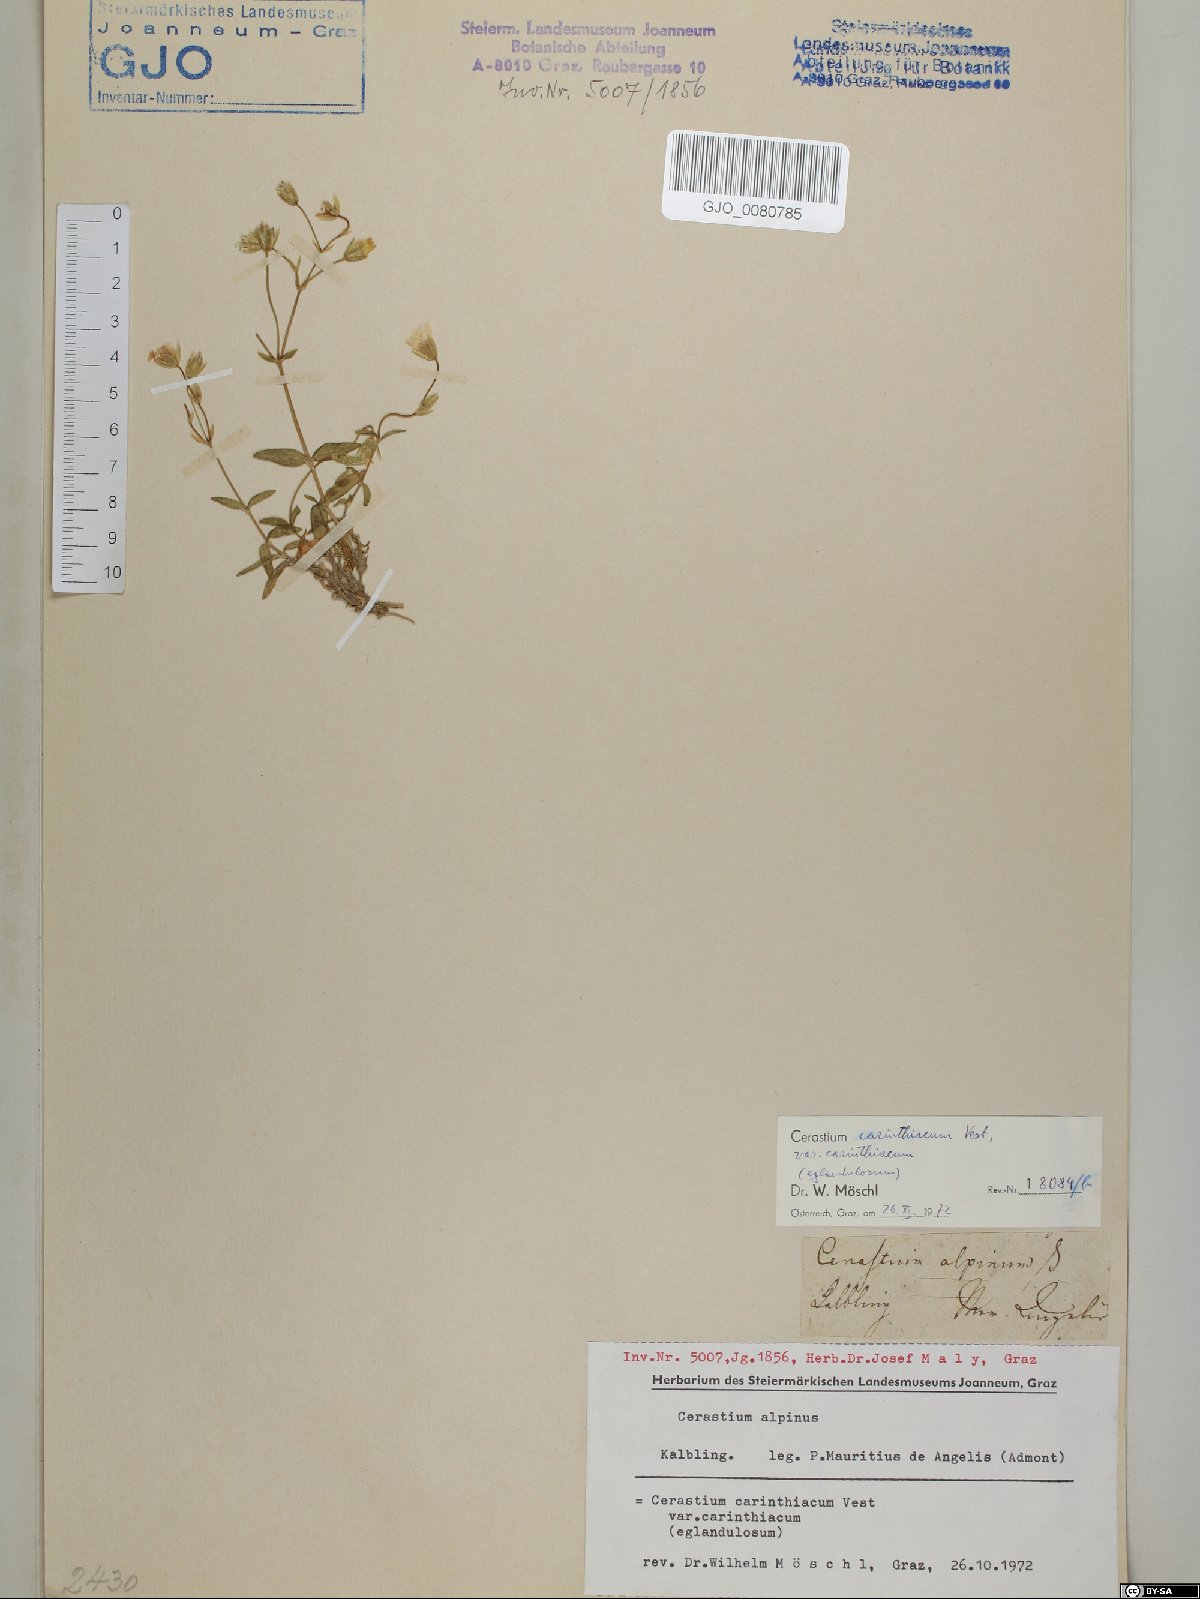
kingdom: Plantae
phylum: Tracheophyta
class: Magnoliopsida
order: Caryophyllales
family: Caryophyllaceae
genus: Cerastium
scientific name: Cerastium carinthiacum
